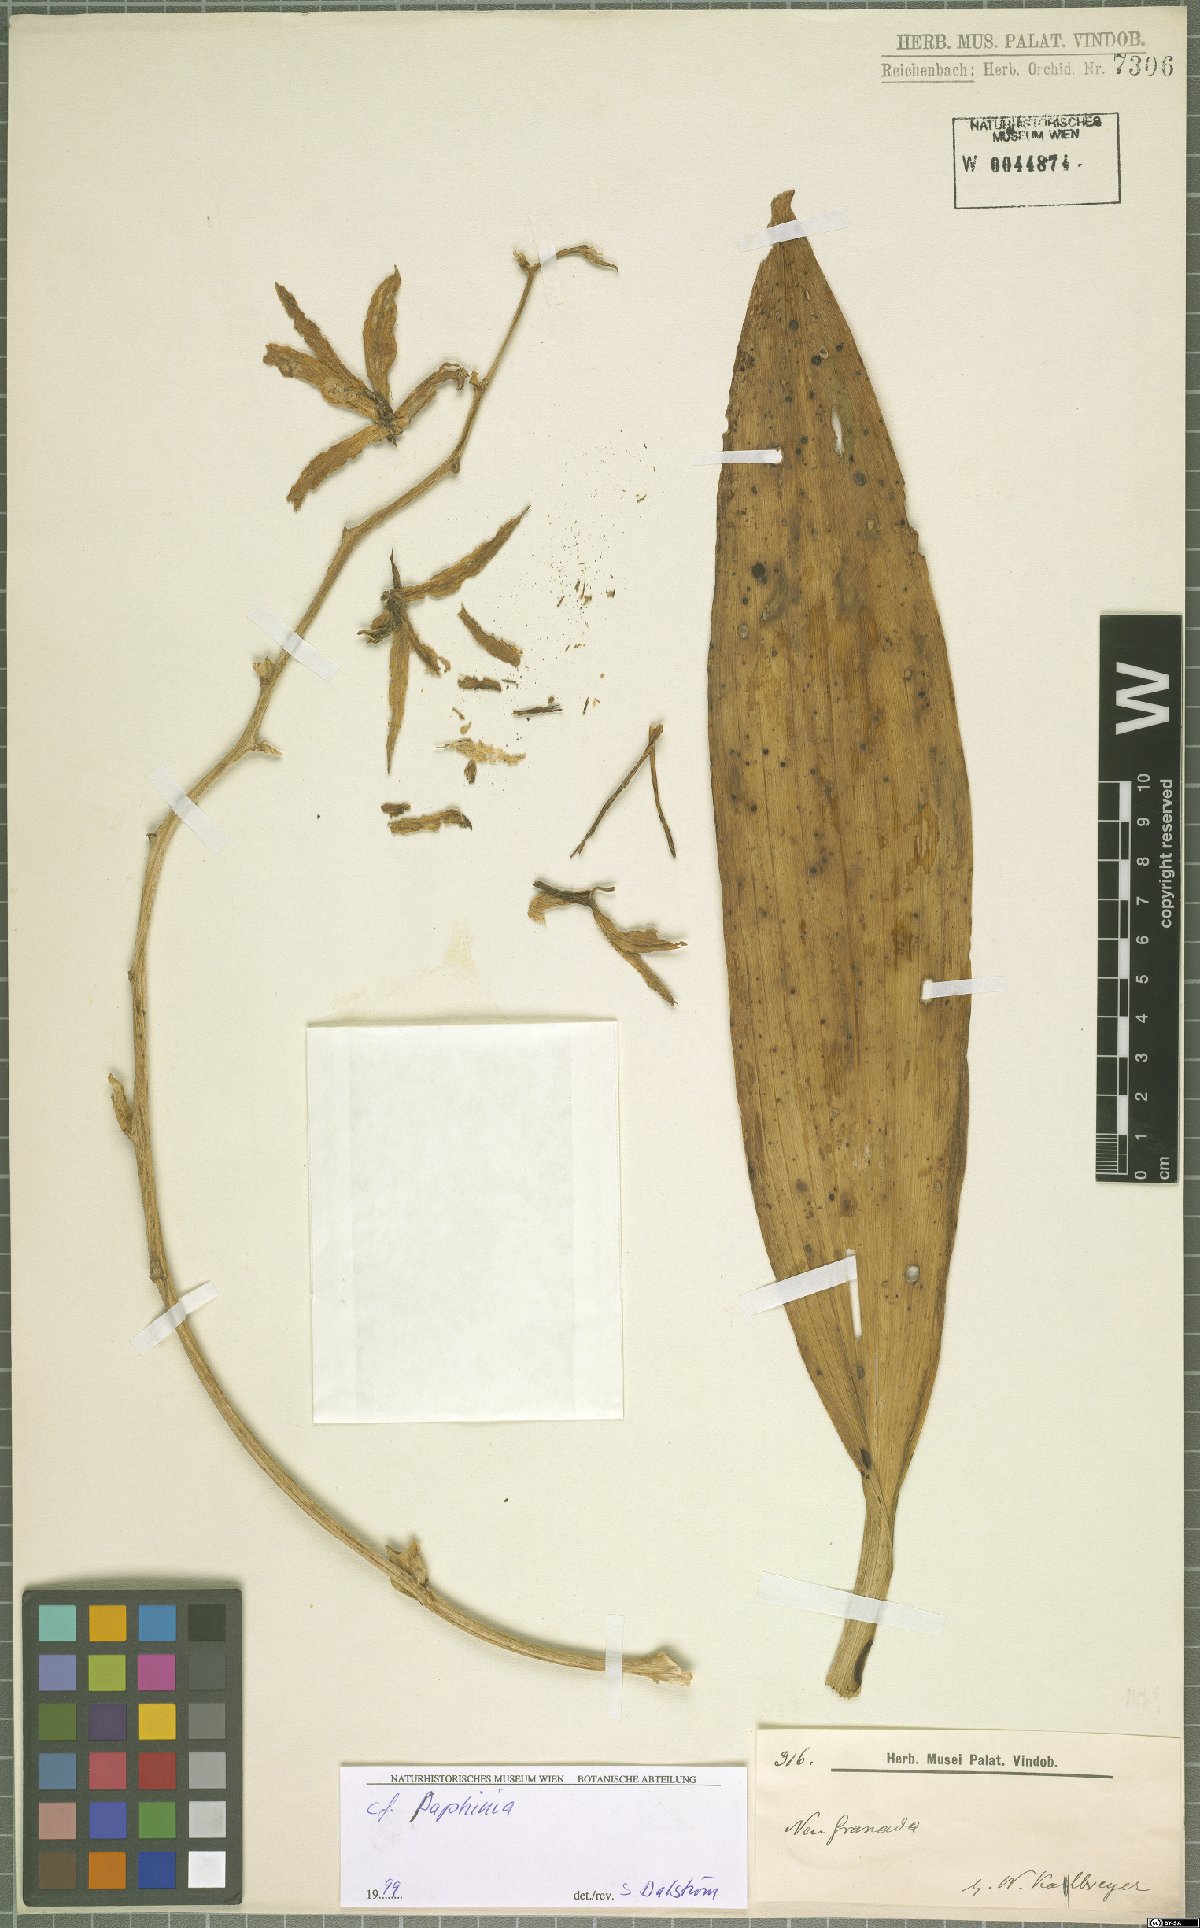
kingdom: Plantae
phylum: Tracheophyta
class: Liliopsida
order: Asparagales
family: Orchidaceae
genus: Paphinia
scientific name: Paphinia
